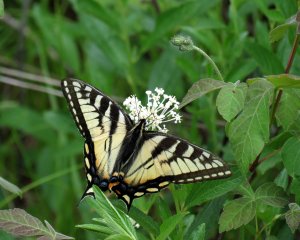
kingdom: Animalia
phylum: Arthropoda
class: Insecta
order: Lepidoptera
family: Papilionidae
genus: Pterourus
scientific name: Pterourus glaucus
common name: Eastern Tiger Swallowtail
